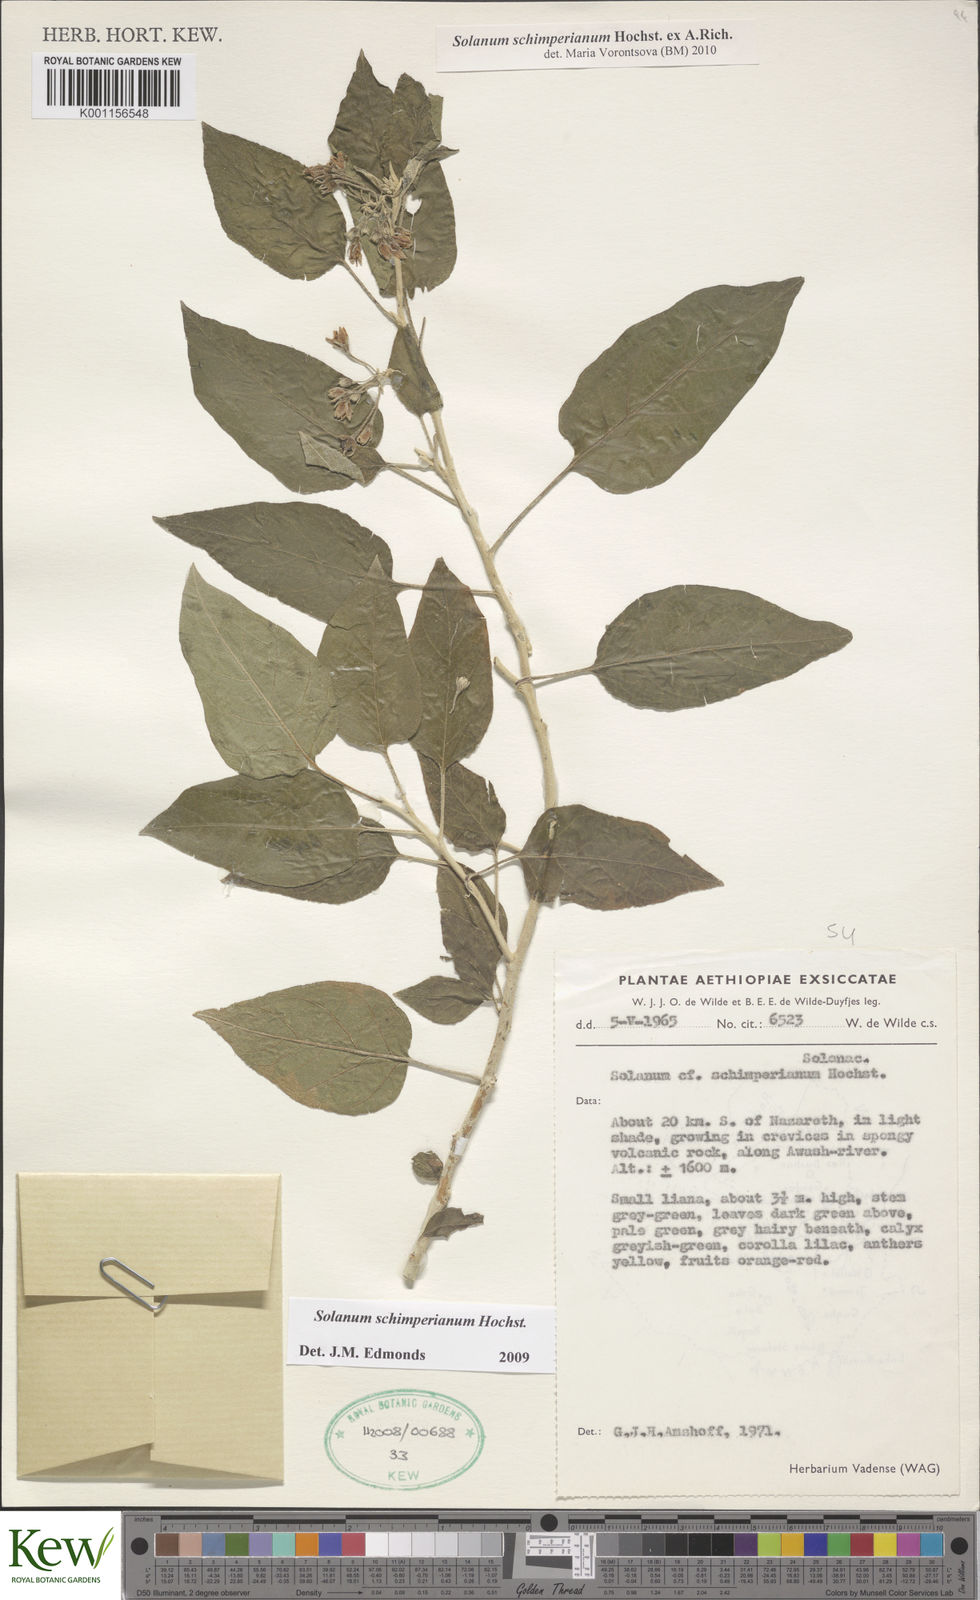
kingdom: Plantae
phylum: Tracheophyta
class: Magnoliopsida
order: Solanales
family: Solanaceae
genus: Solanum
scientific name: Solanum
